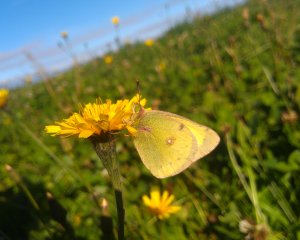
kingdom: Animalia
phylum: Arthropoda
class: Insecta
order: Lepidoptera
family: Pieridae
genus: Colias
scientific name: Colias philodice
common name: Clouded Sulphur
